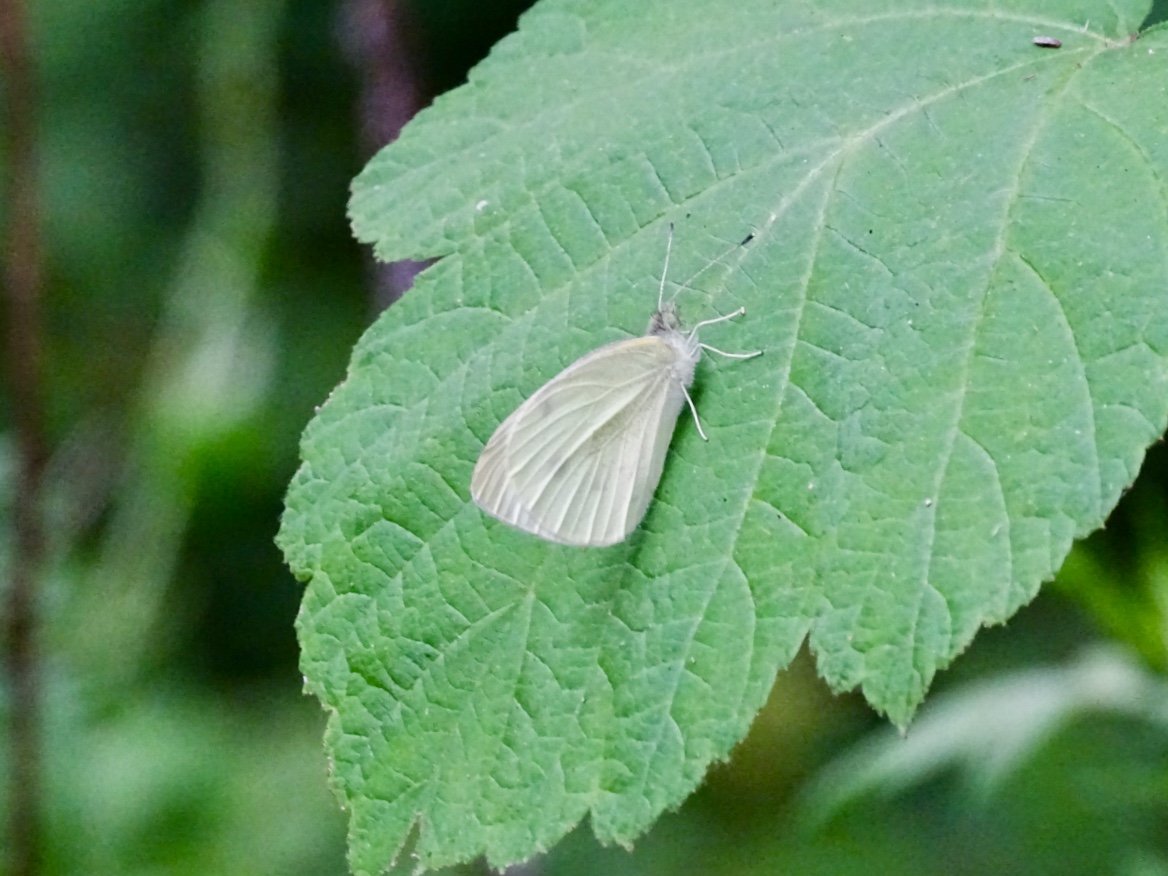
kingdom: Animalia
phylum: Arthropoda
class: Insecta
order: Lepidoptera
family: Pieridae
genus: Pieris
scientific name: Pieris rapae
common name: Cabbage White
